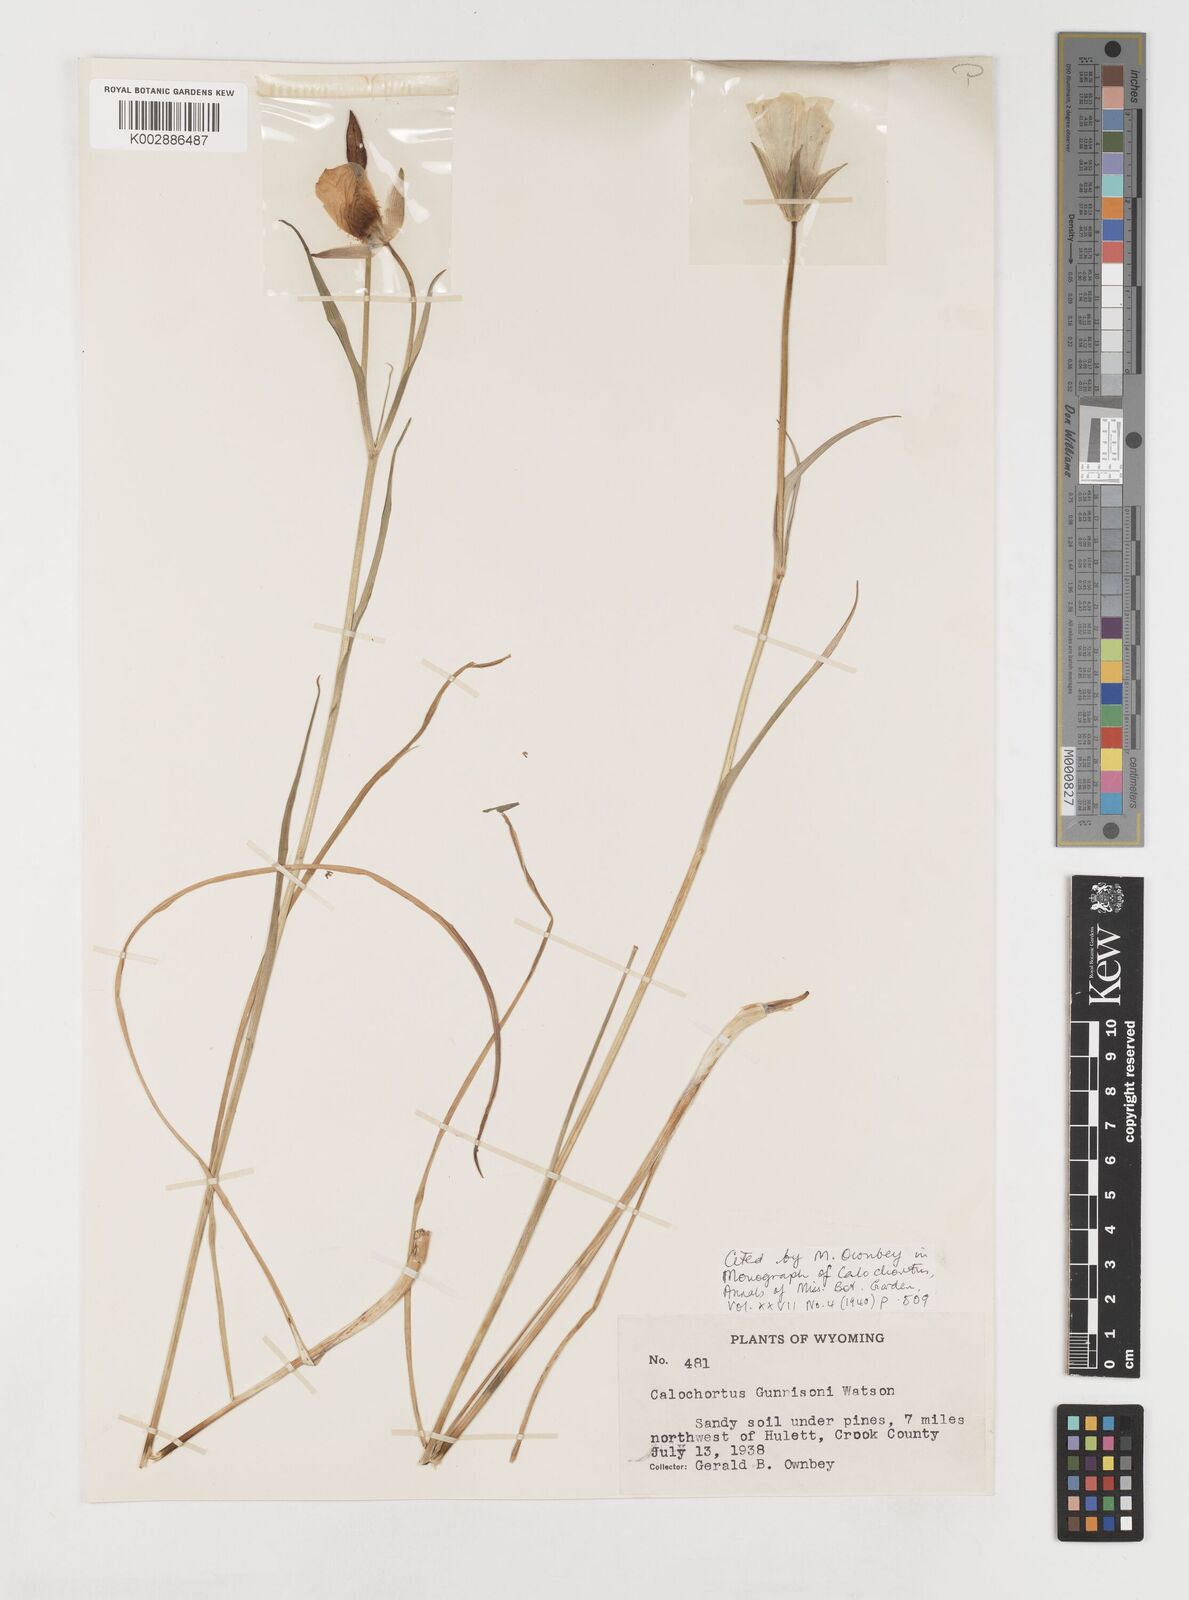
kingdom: Plantae
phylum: Tracheophyta
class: Liliopsida
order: Liliales
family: Liliaceae
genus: Calochortus
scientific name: Calochortus gunnisonii
